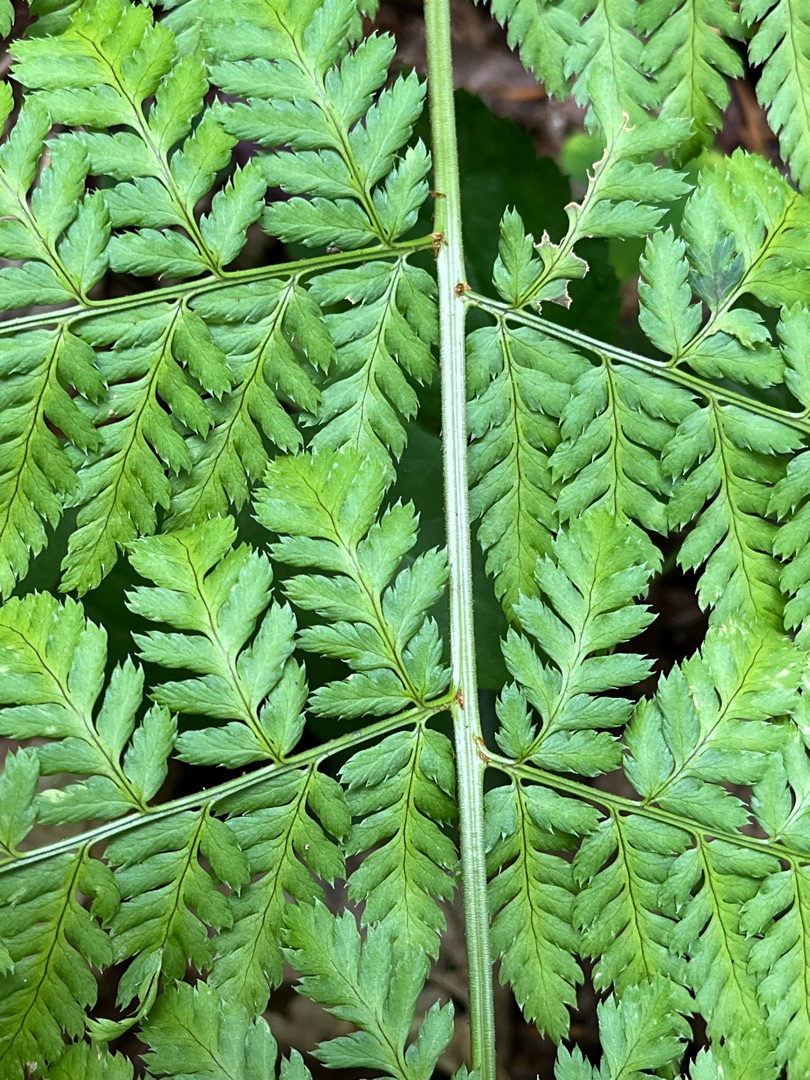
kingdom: Plantae
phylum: Tracheophyta
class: Polypodiopsida
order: Polypodiales
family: Dryopteridaceae
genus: Dryopteris
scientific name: Dryopteris dilatata
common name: Bredbladet mangeløv
